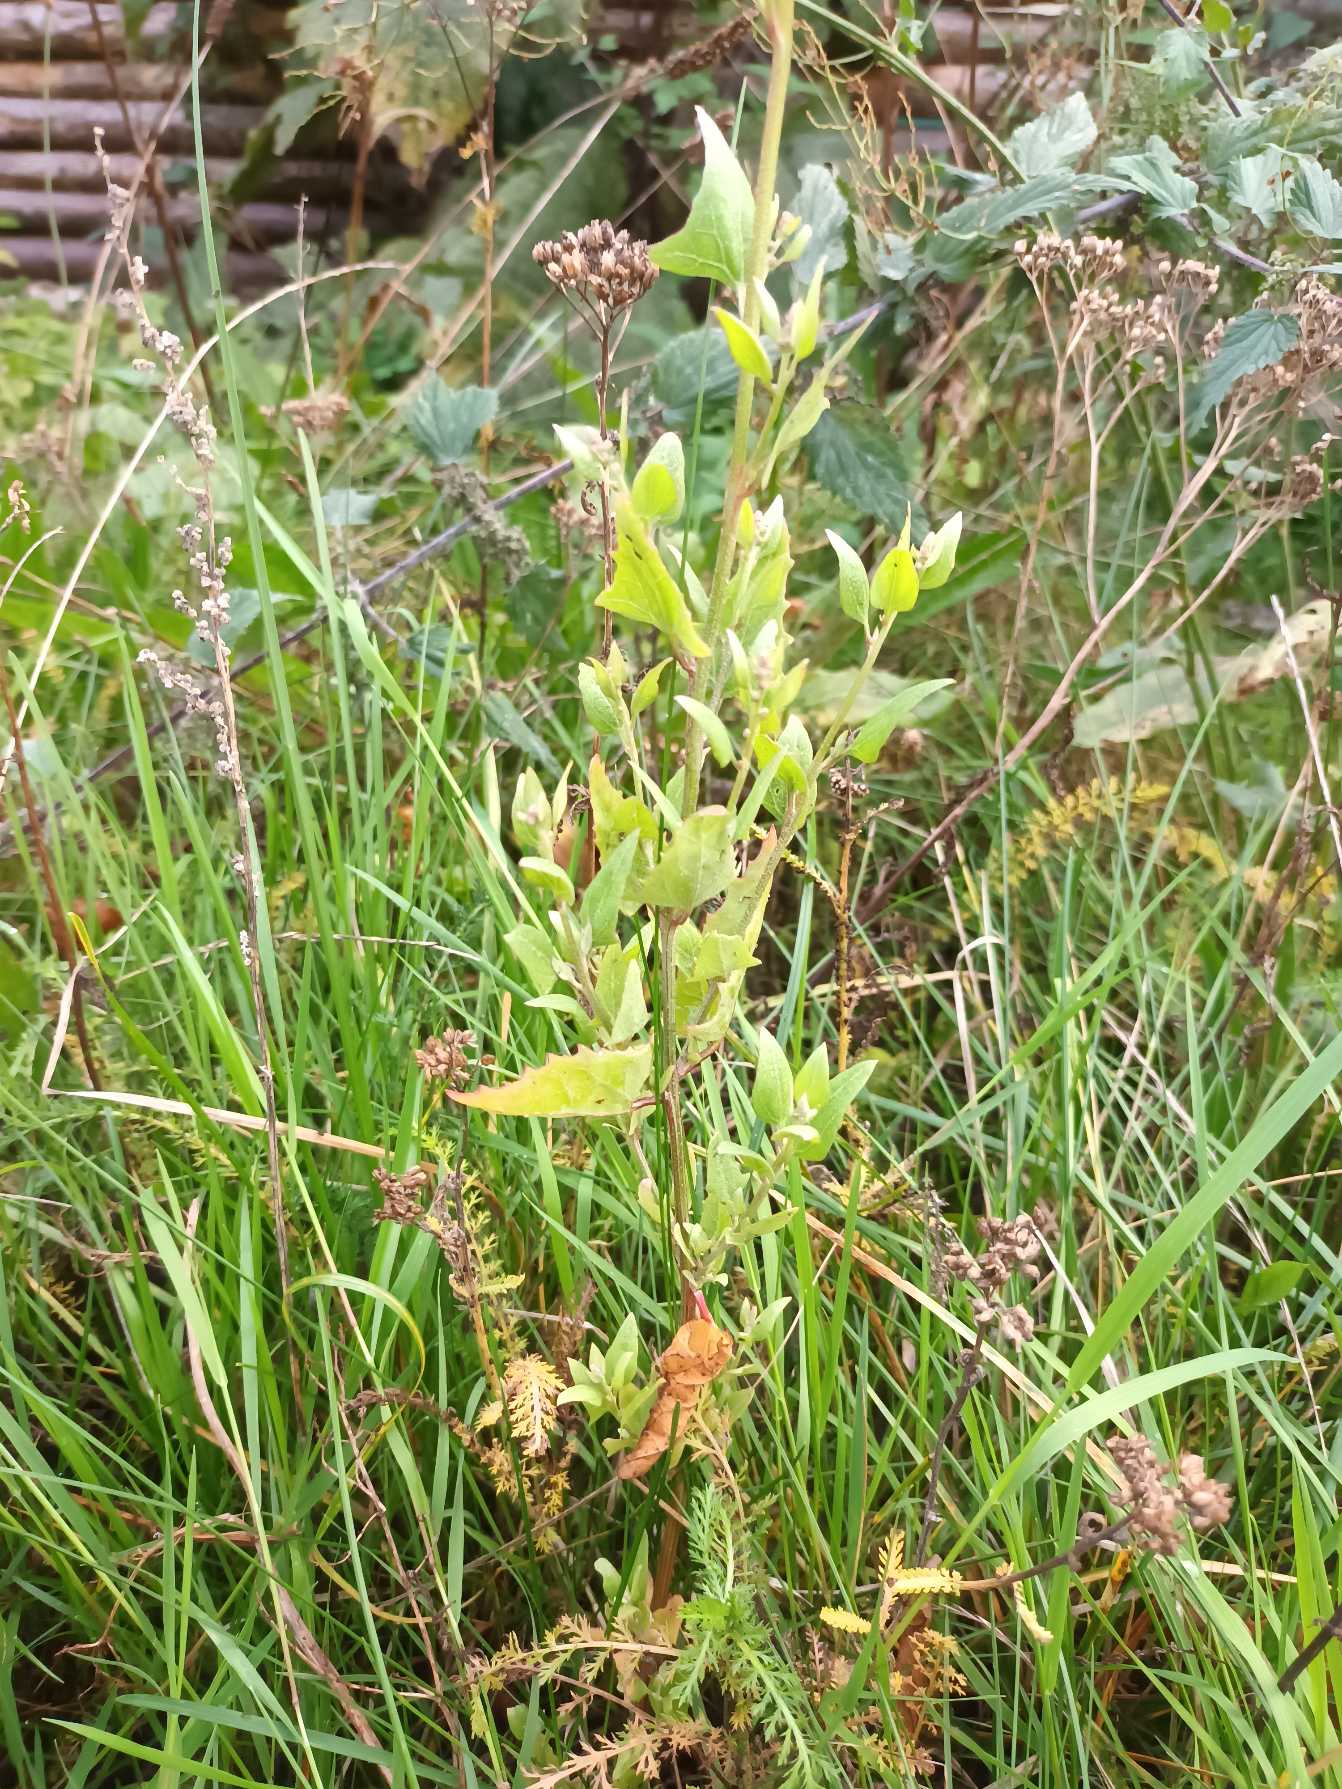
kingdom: Plantae
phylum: Tracheophyta
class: Magnoliopsida
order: Caryophyllales
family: Amaranthaceae
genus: Atriplex
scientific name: Atriplex prostrata
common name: Spyd-mælde
